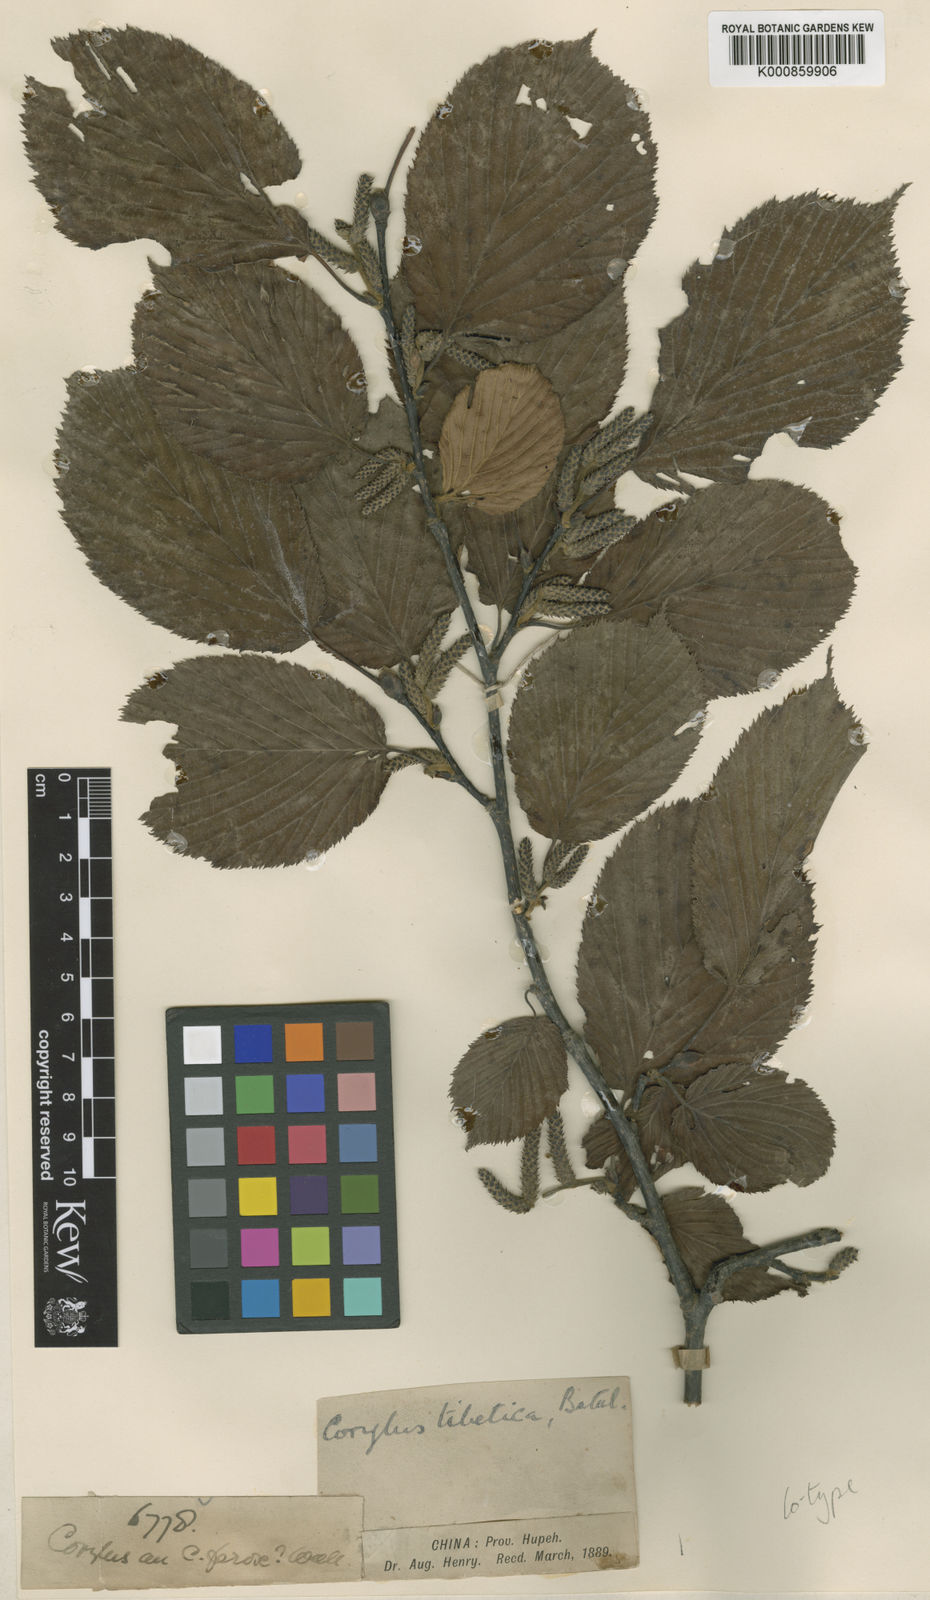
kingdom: Plantae
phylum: Tracheophyta
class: Magnoliopsida
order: Fagales
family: Betulaceae
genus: Corylus
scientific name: Corylus ferox
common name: Himalayan hazel
